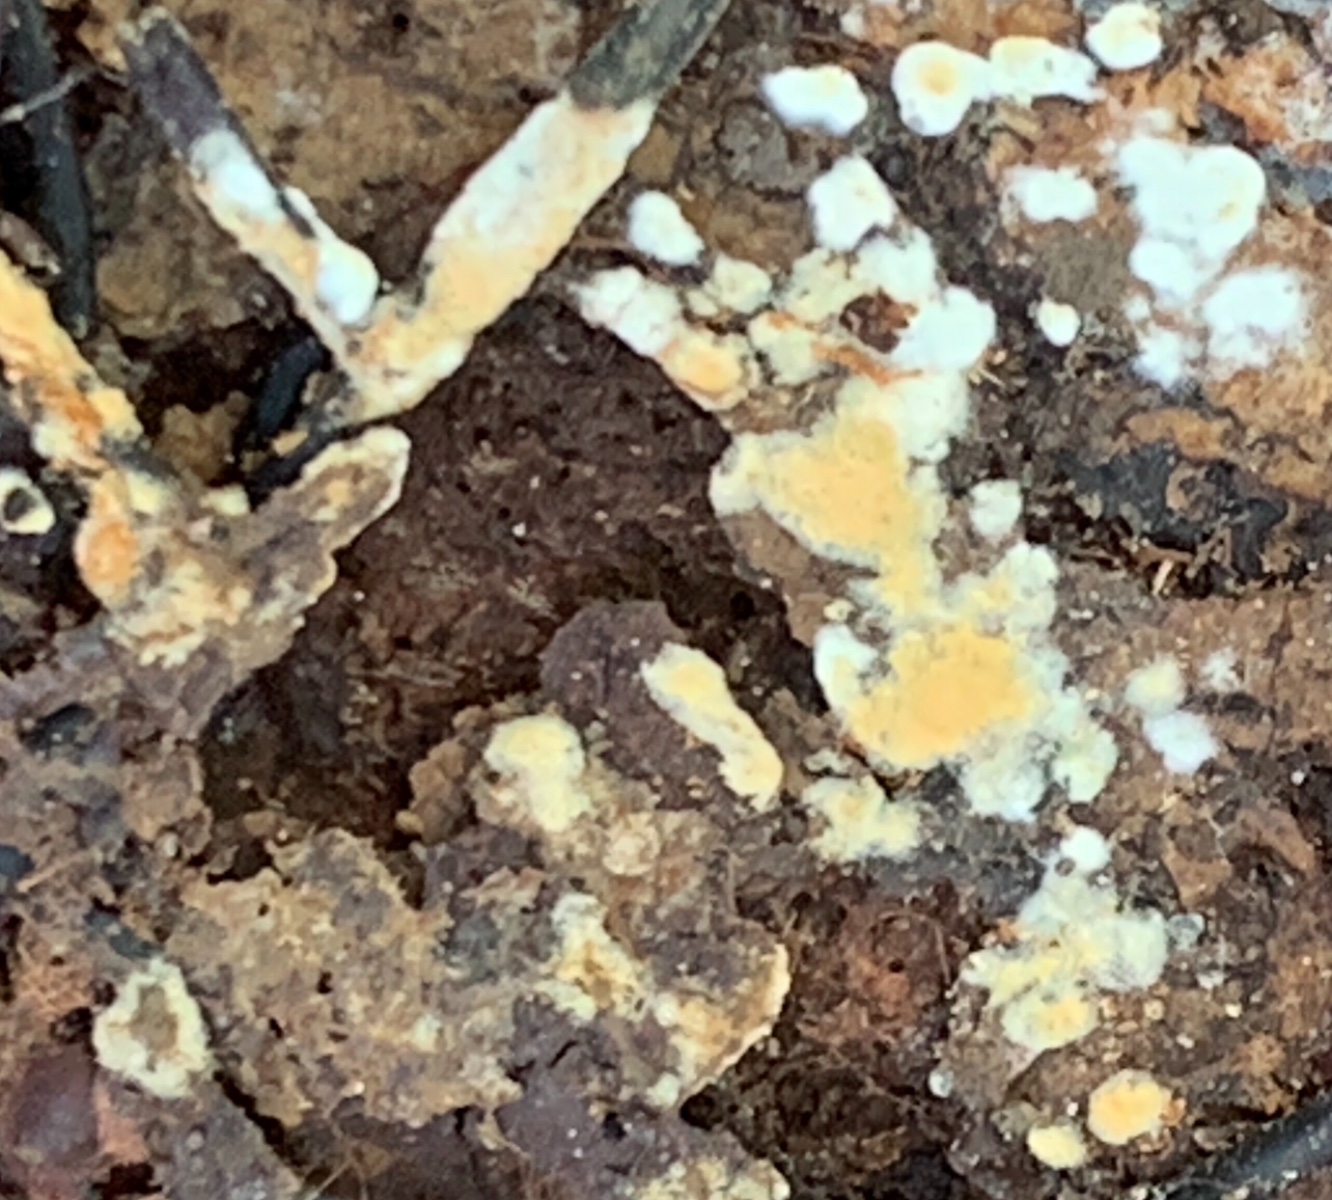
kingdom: Fungi
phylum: Basidiomycota
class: Agaricomycetes
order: Cantharellales
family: Botryobasidiaceae
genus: Botryobasidium
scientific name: Botryobasidium aureum
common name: gylden spindhinde
